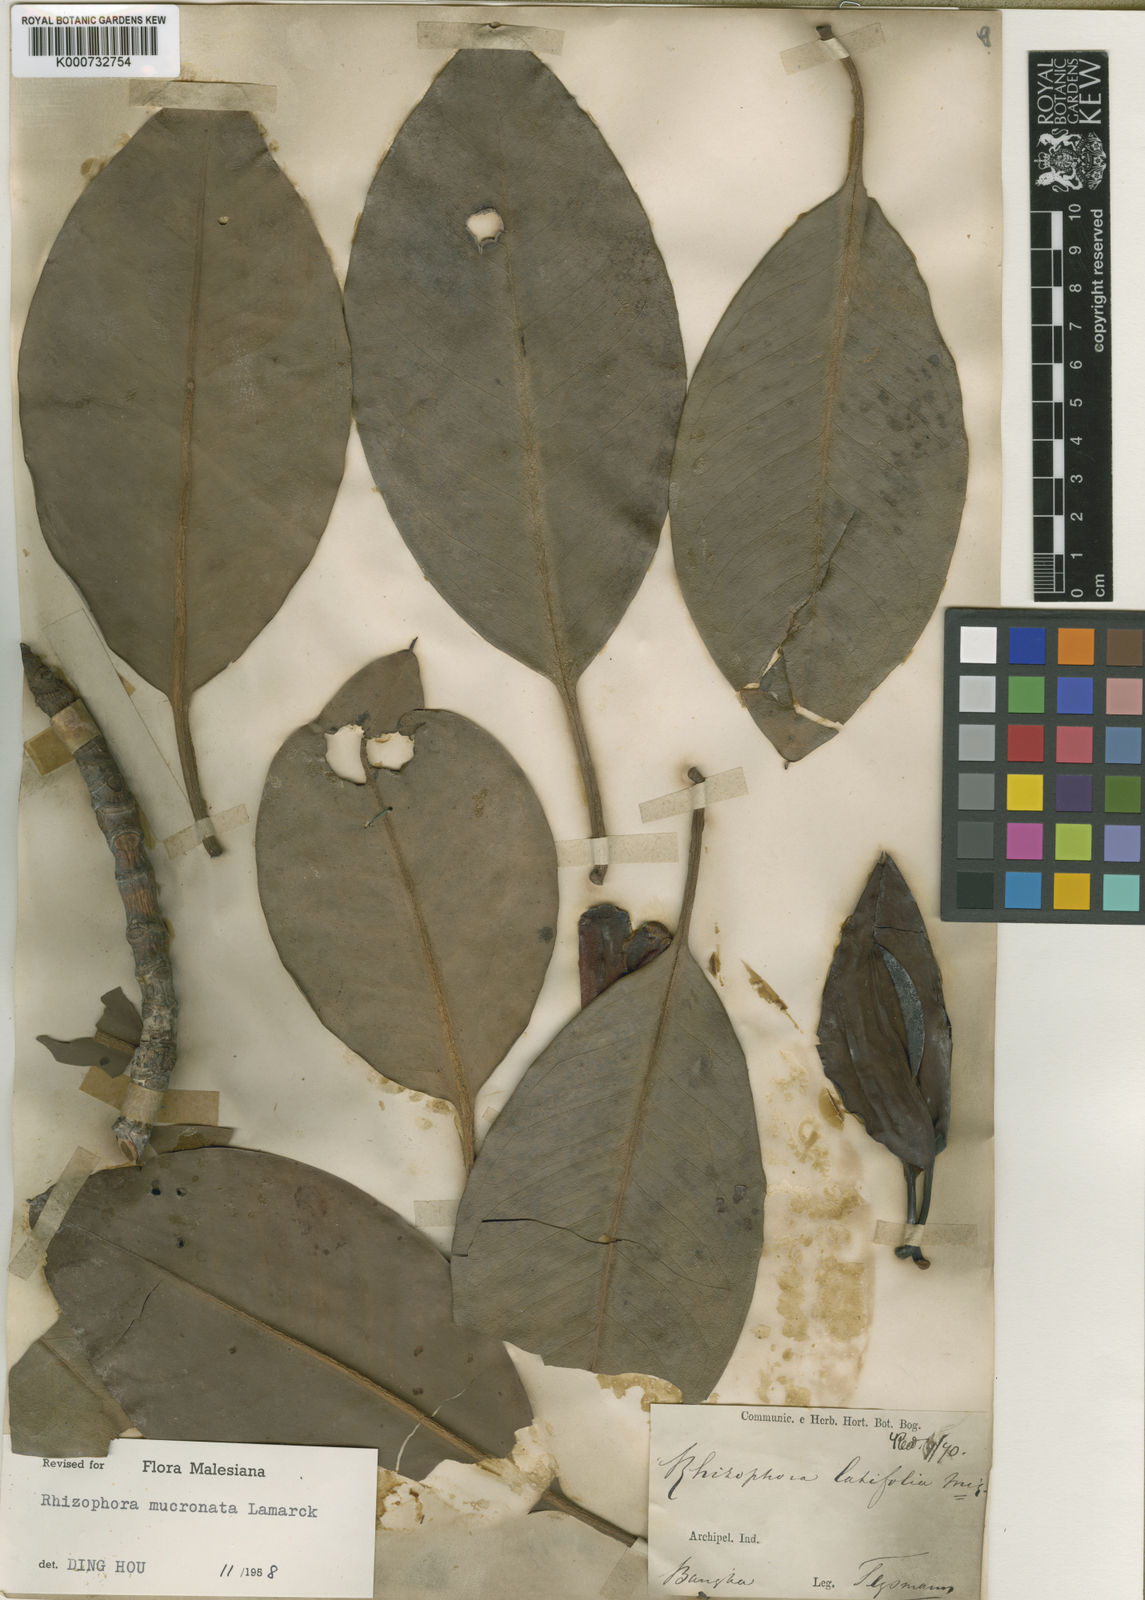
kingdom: Plantae
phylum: Tracheophyta
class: Magnoliopsida
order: Malpighiales
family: Rhizophoraceae
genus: Rhizophora
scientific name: Rhizophora
